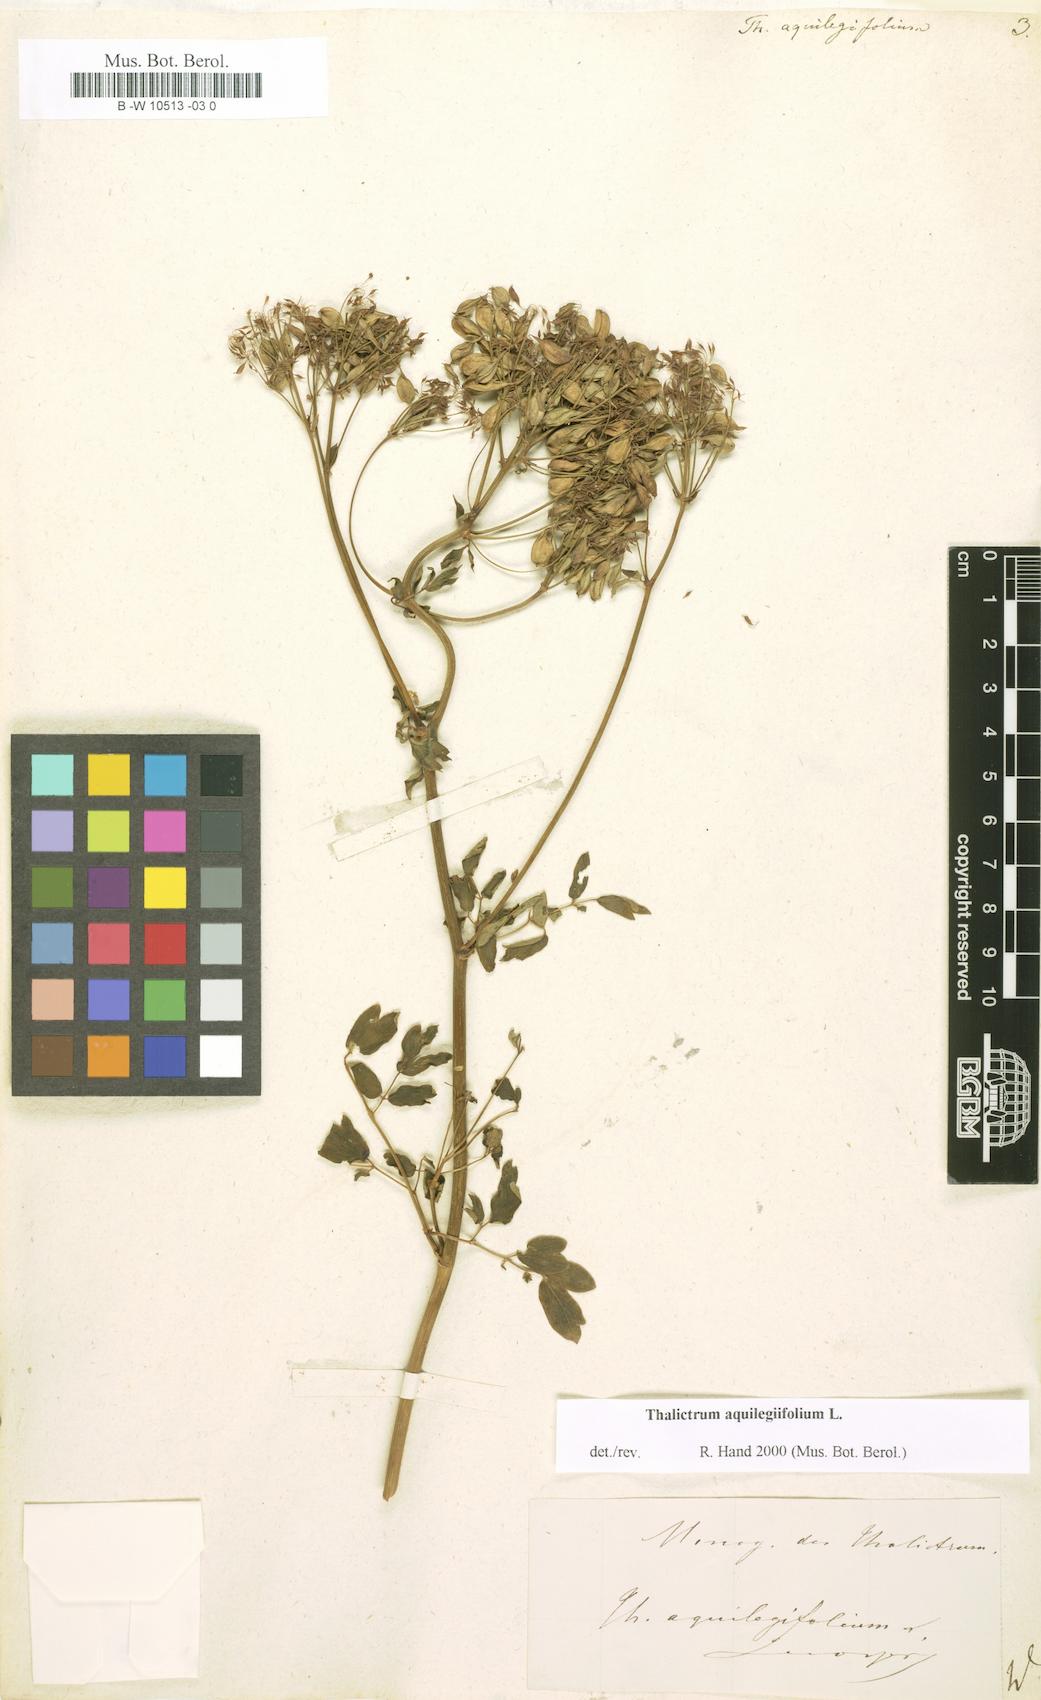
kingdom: Plantae
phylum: Tracheophyta
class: Magnoliopsida
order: Ranunculales
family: Ranunculaceae
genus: Thalictrum
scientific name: Thalictrum aquilegiifolium
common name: French meadow-rue
